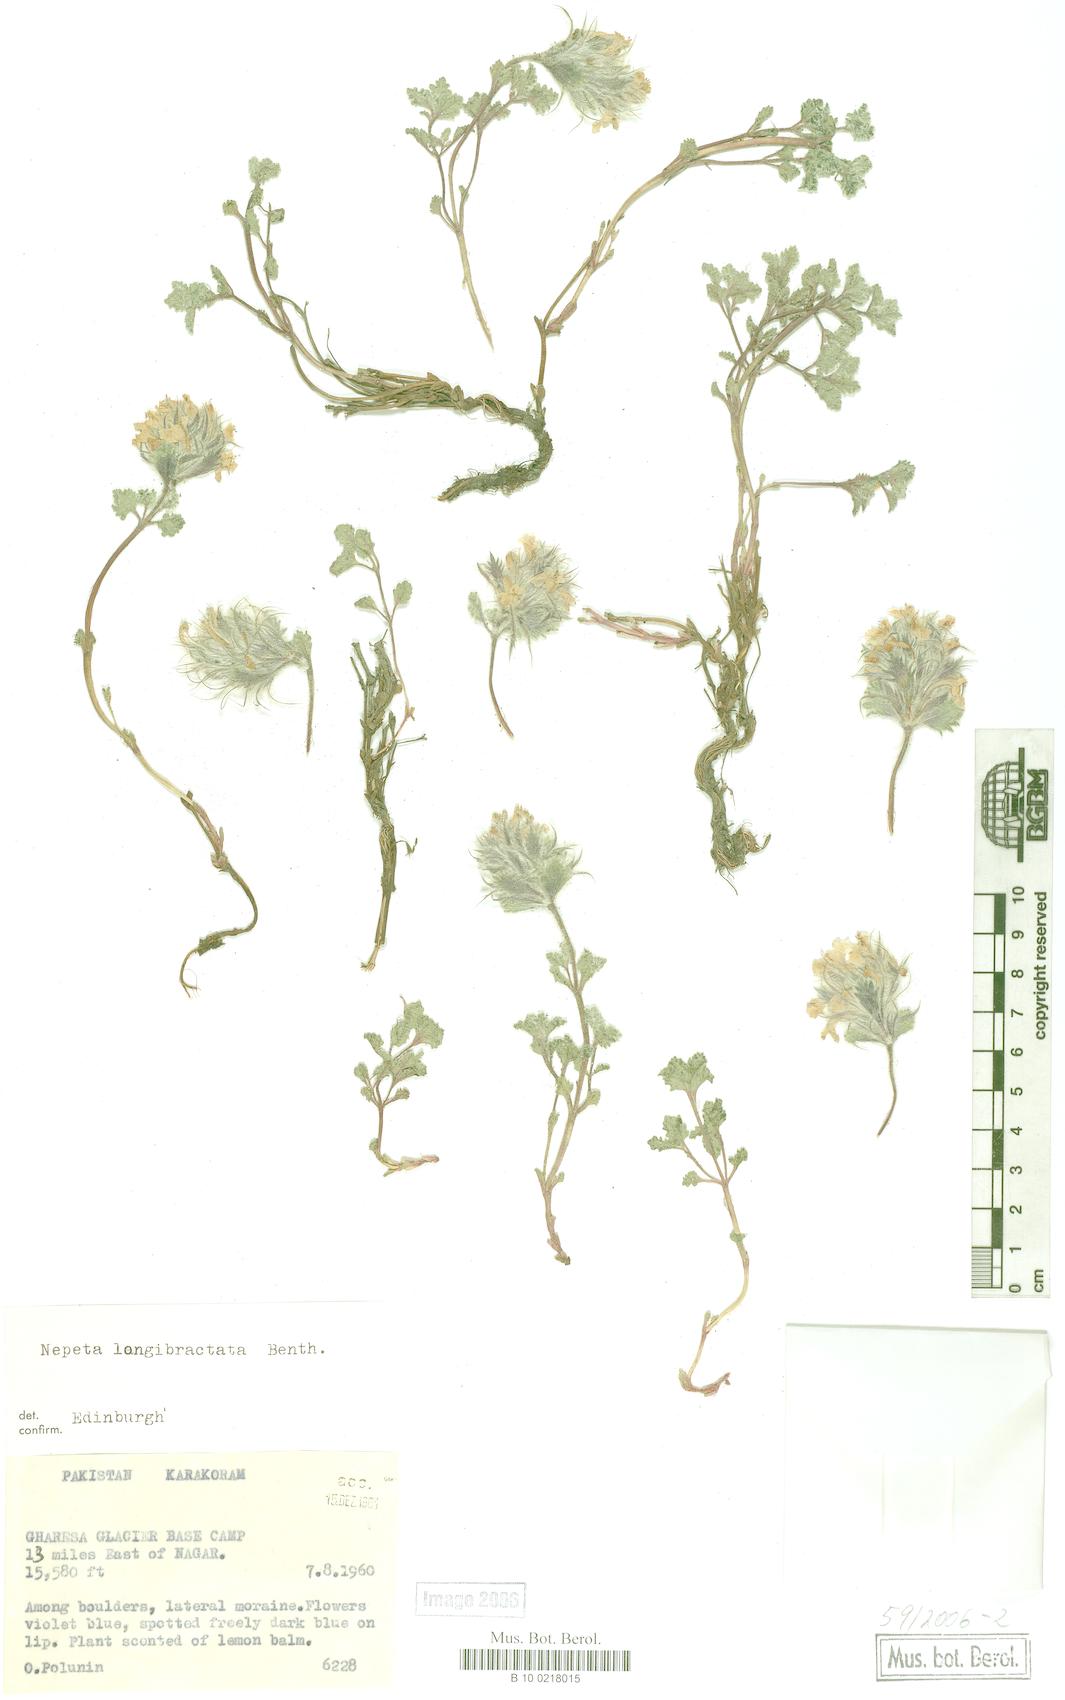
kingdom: Plantae
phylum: Tracheophyta
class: Magnoliopsida
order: Lamiales
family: Lamiaceae
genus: Nepeta
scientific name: Nepeta longibracteata
